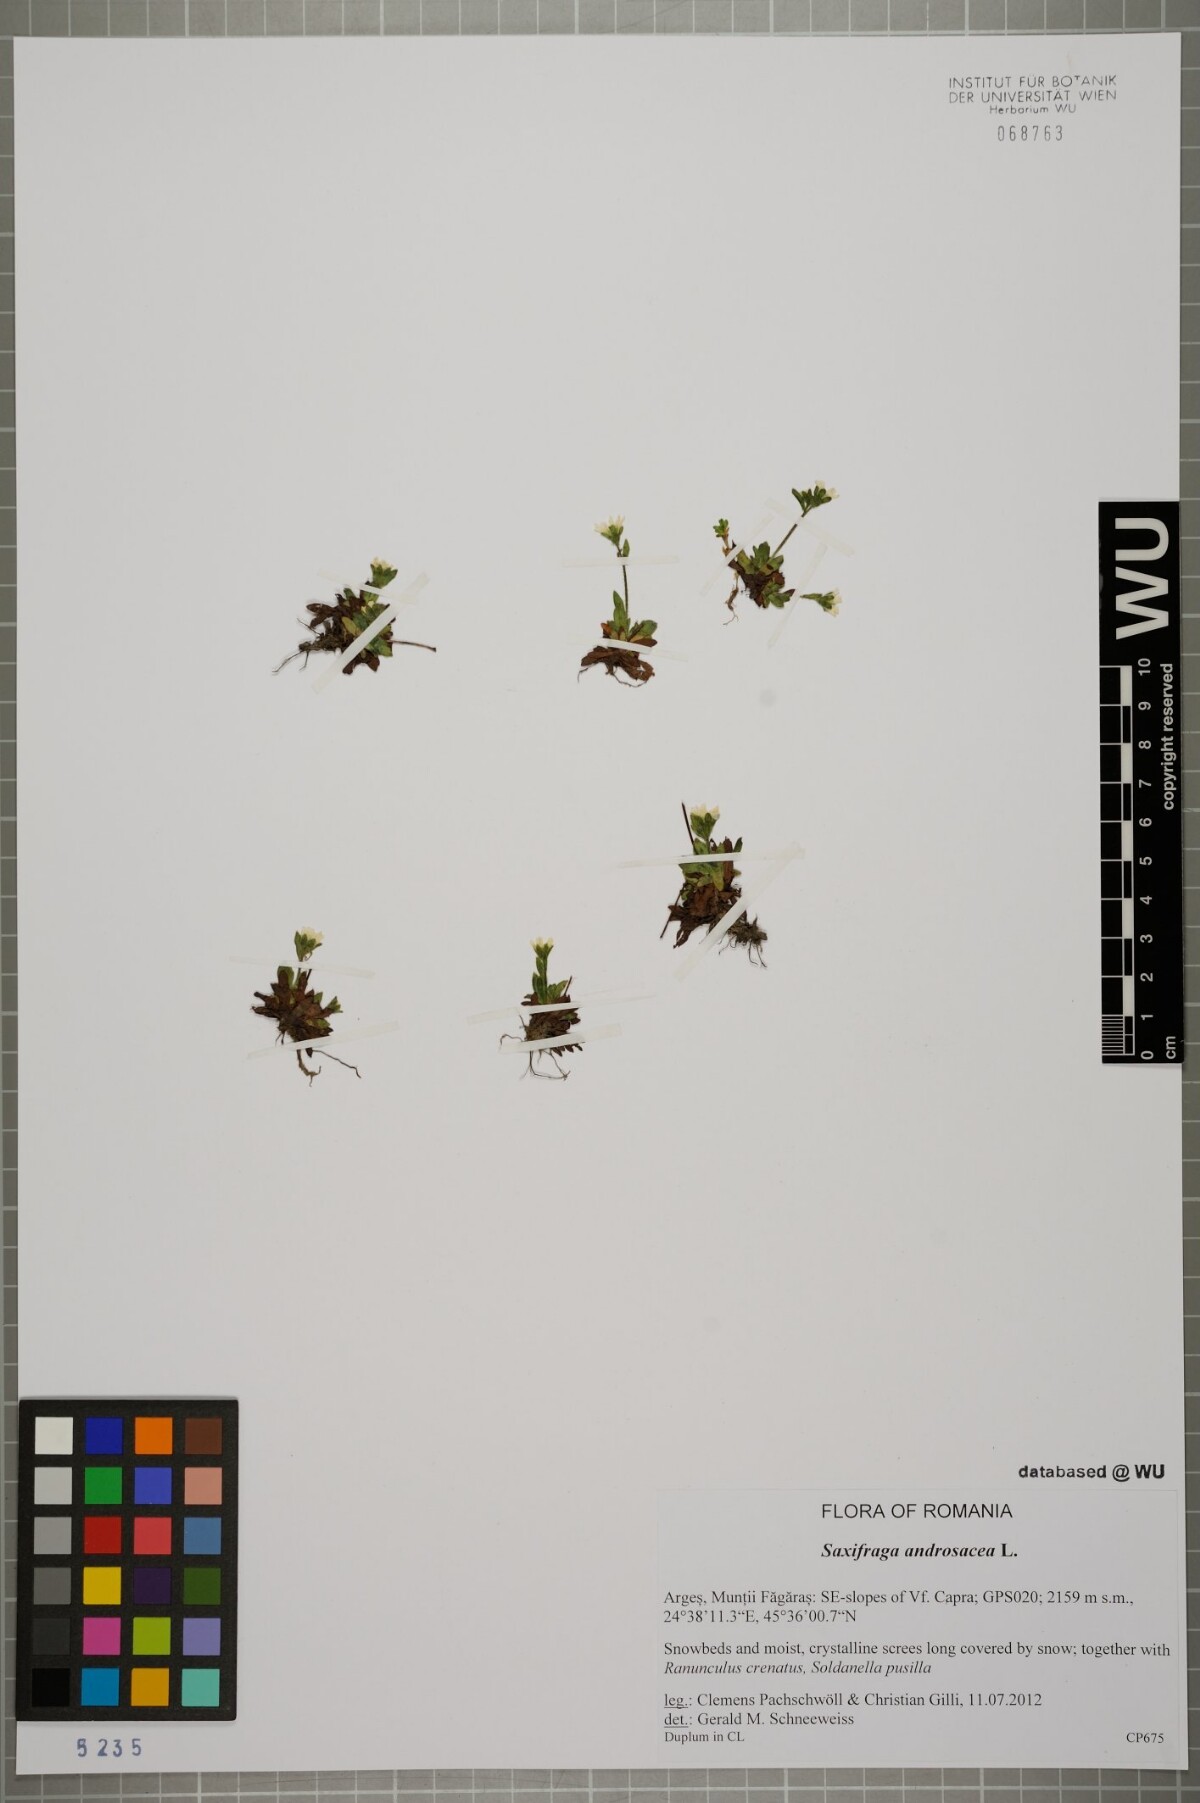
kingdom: Plantae
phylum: Tracheophyta
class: Magnoliopsida
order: Saxifragales
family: Saxifragaceae
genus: Saxifraga
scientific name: Saxifraga androsacea
